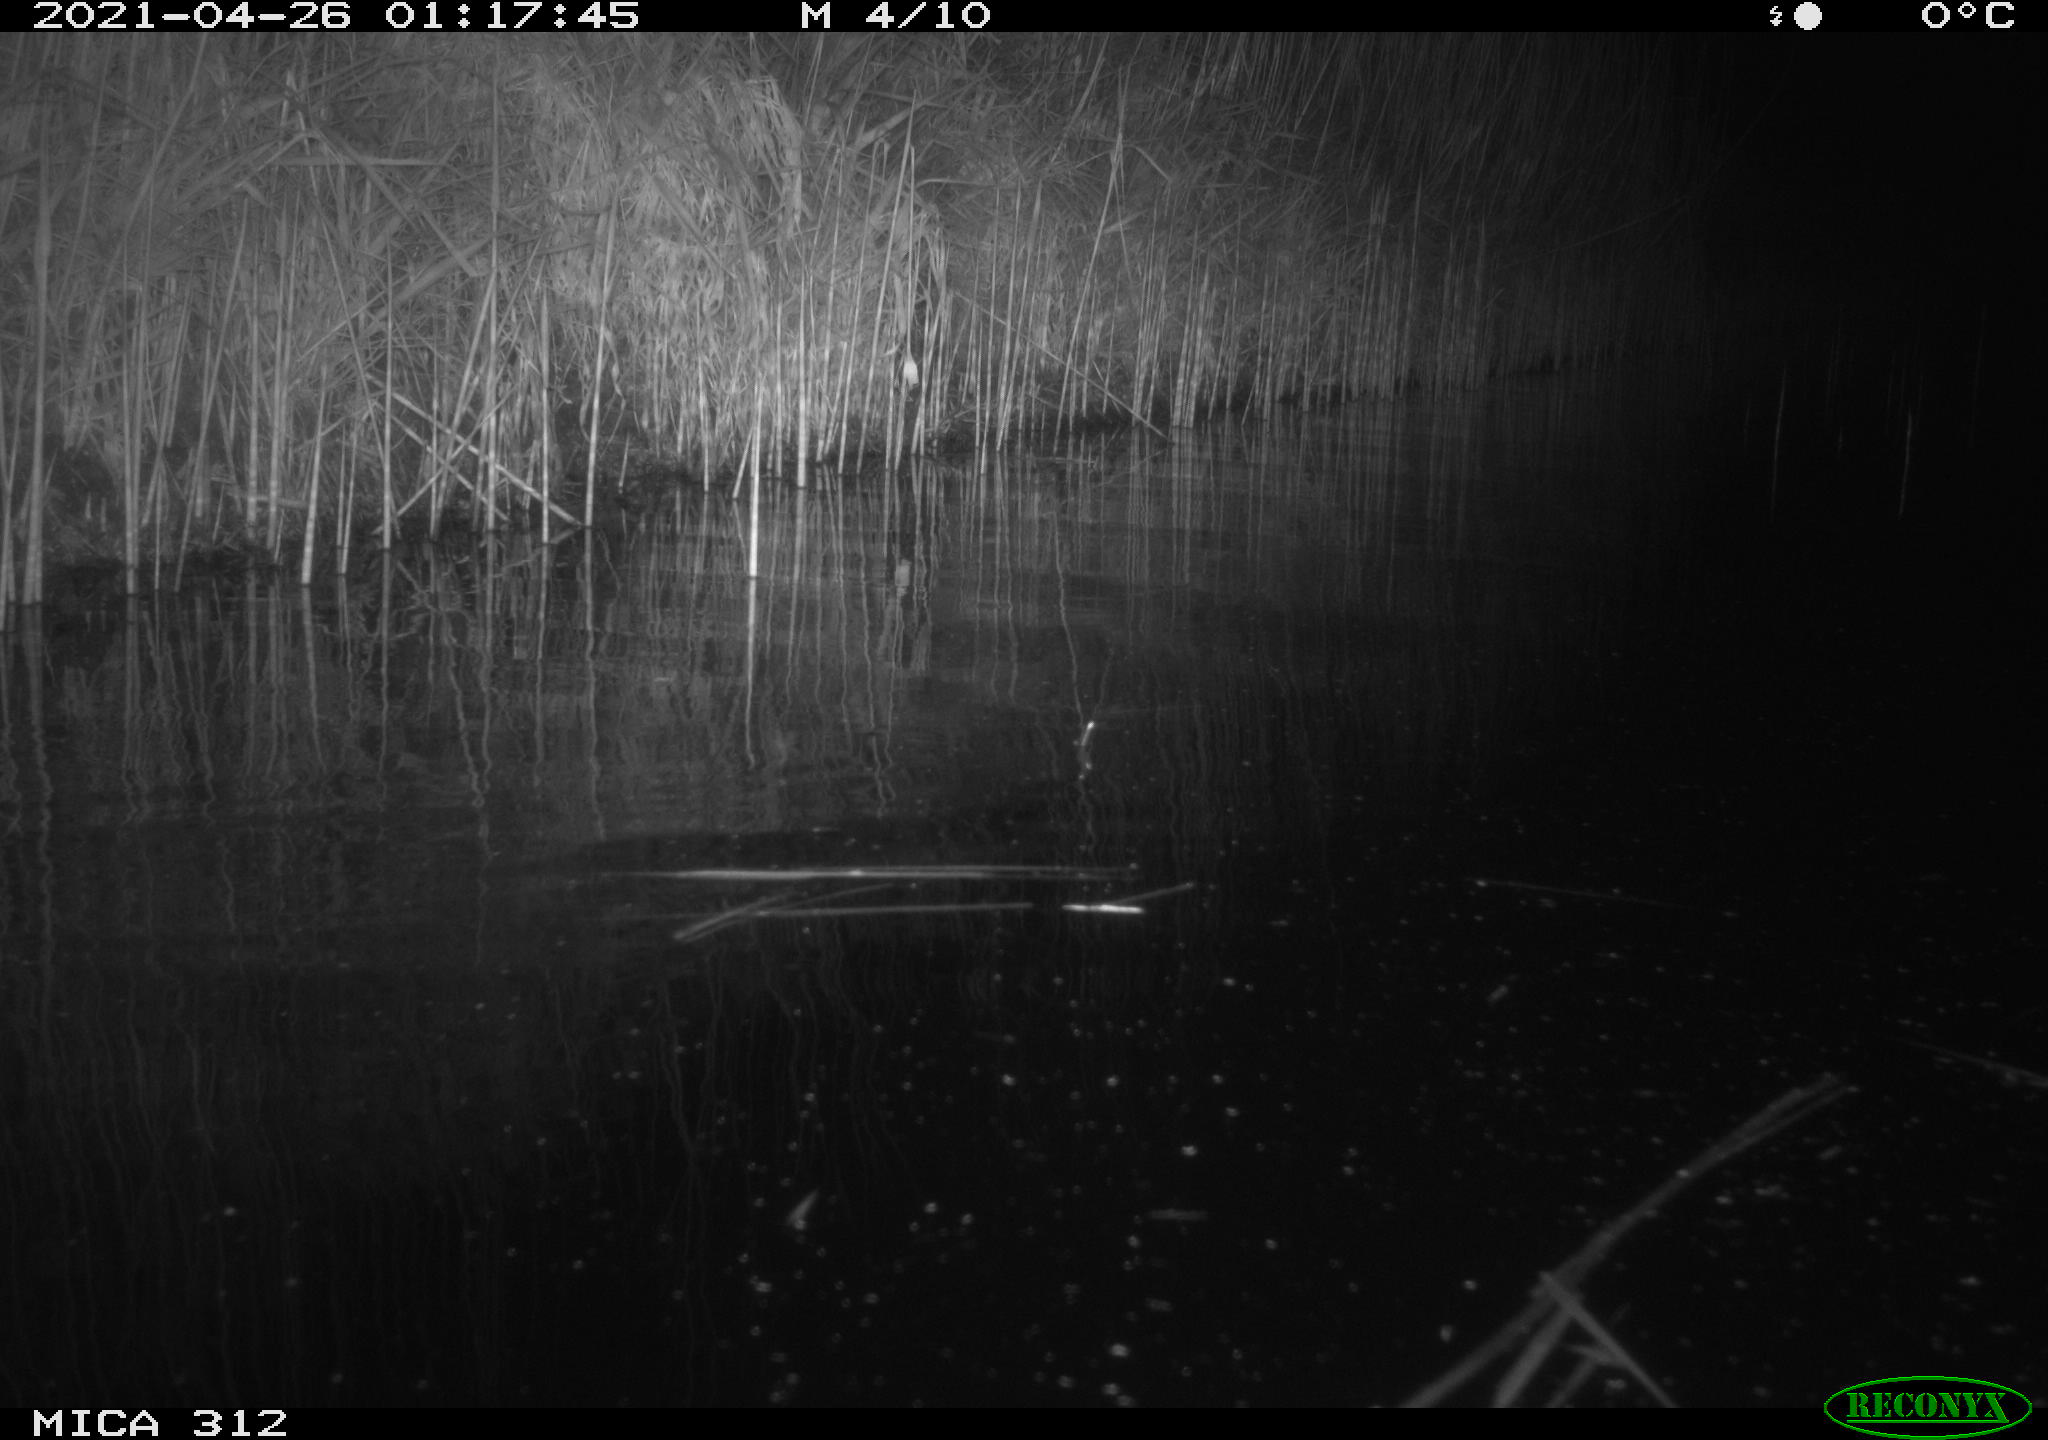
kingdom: Animalia
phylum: Chordata
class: Aves
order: Gruiformes
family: Rallidae
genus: Fulica
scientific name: Fulica atra
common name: Eurasian coot
